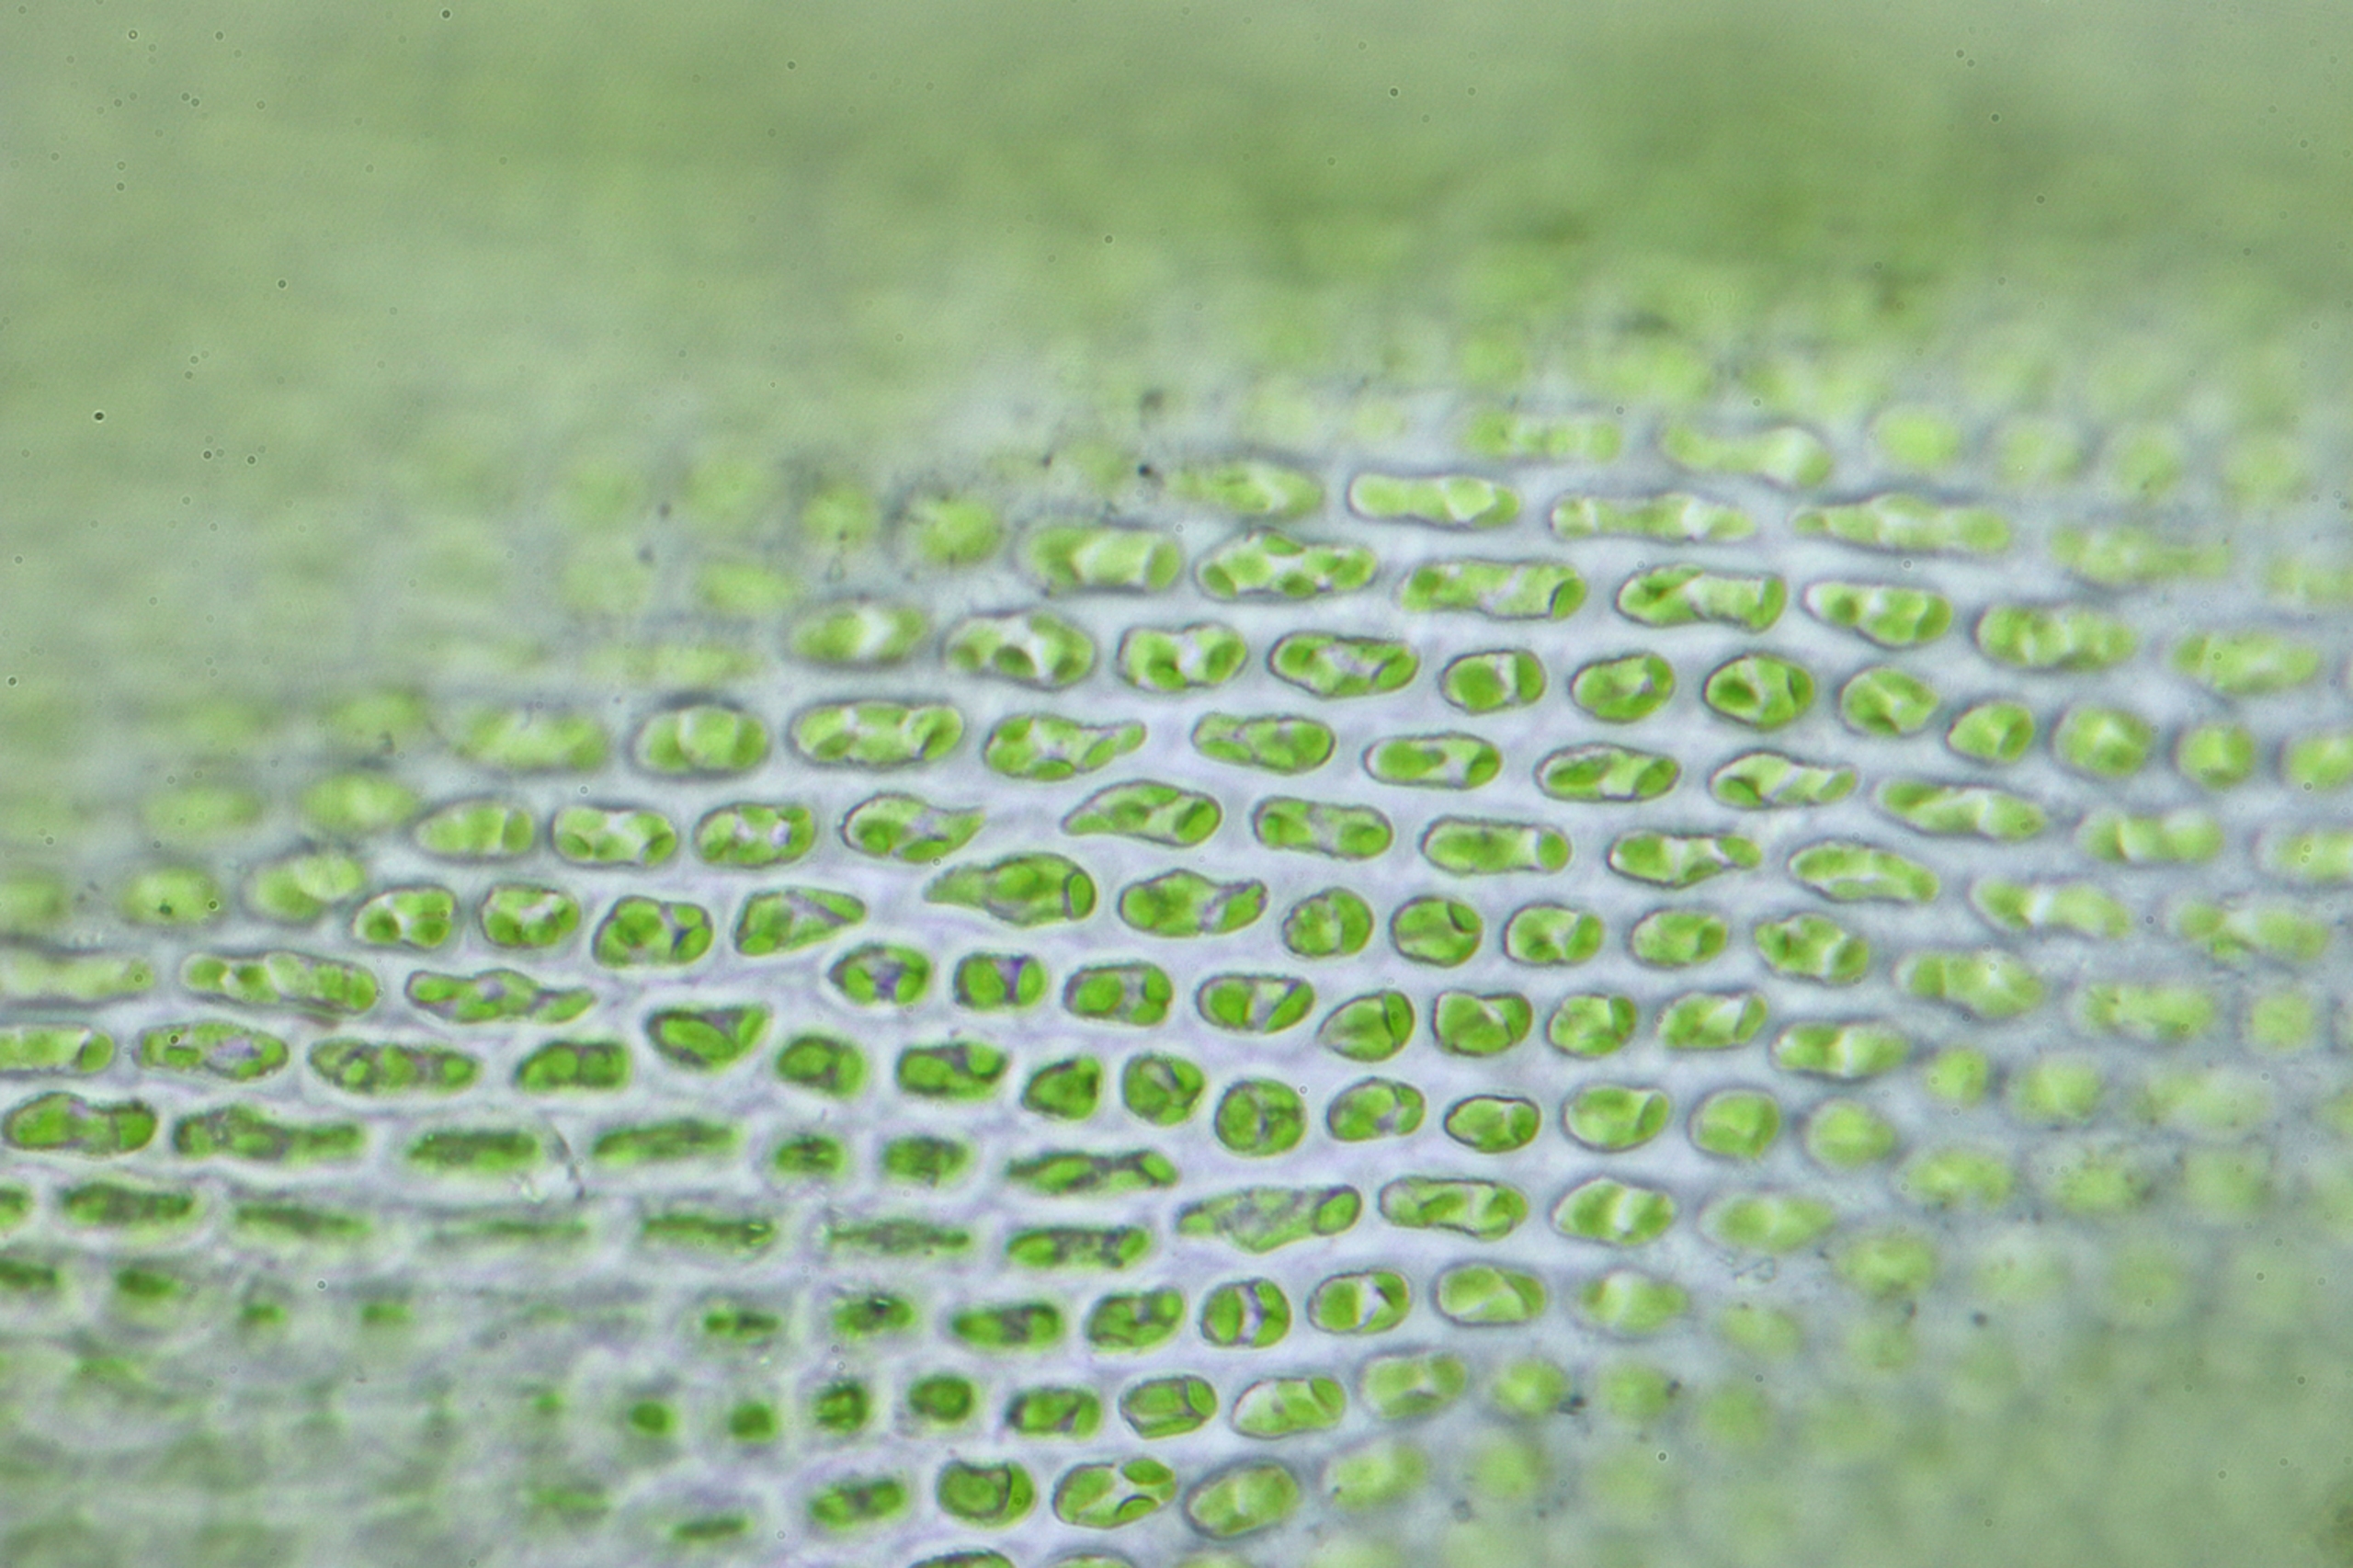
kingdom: Plantae
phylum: Bryophyta
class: Bryopsida
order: Grimmiales
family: Ptychomitriaceae
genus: Ptychomitrium
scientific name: Ptychomitrium polyphyllum
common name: Mangebladet foldhætte
